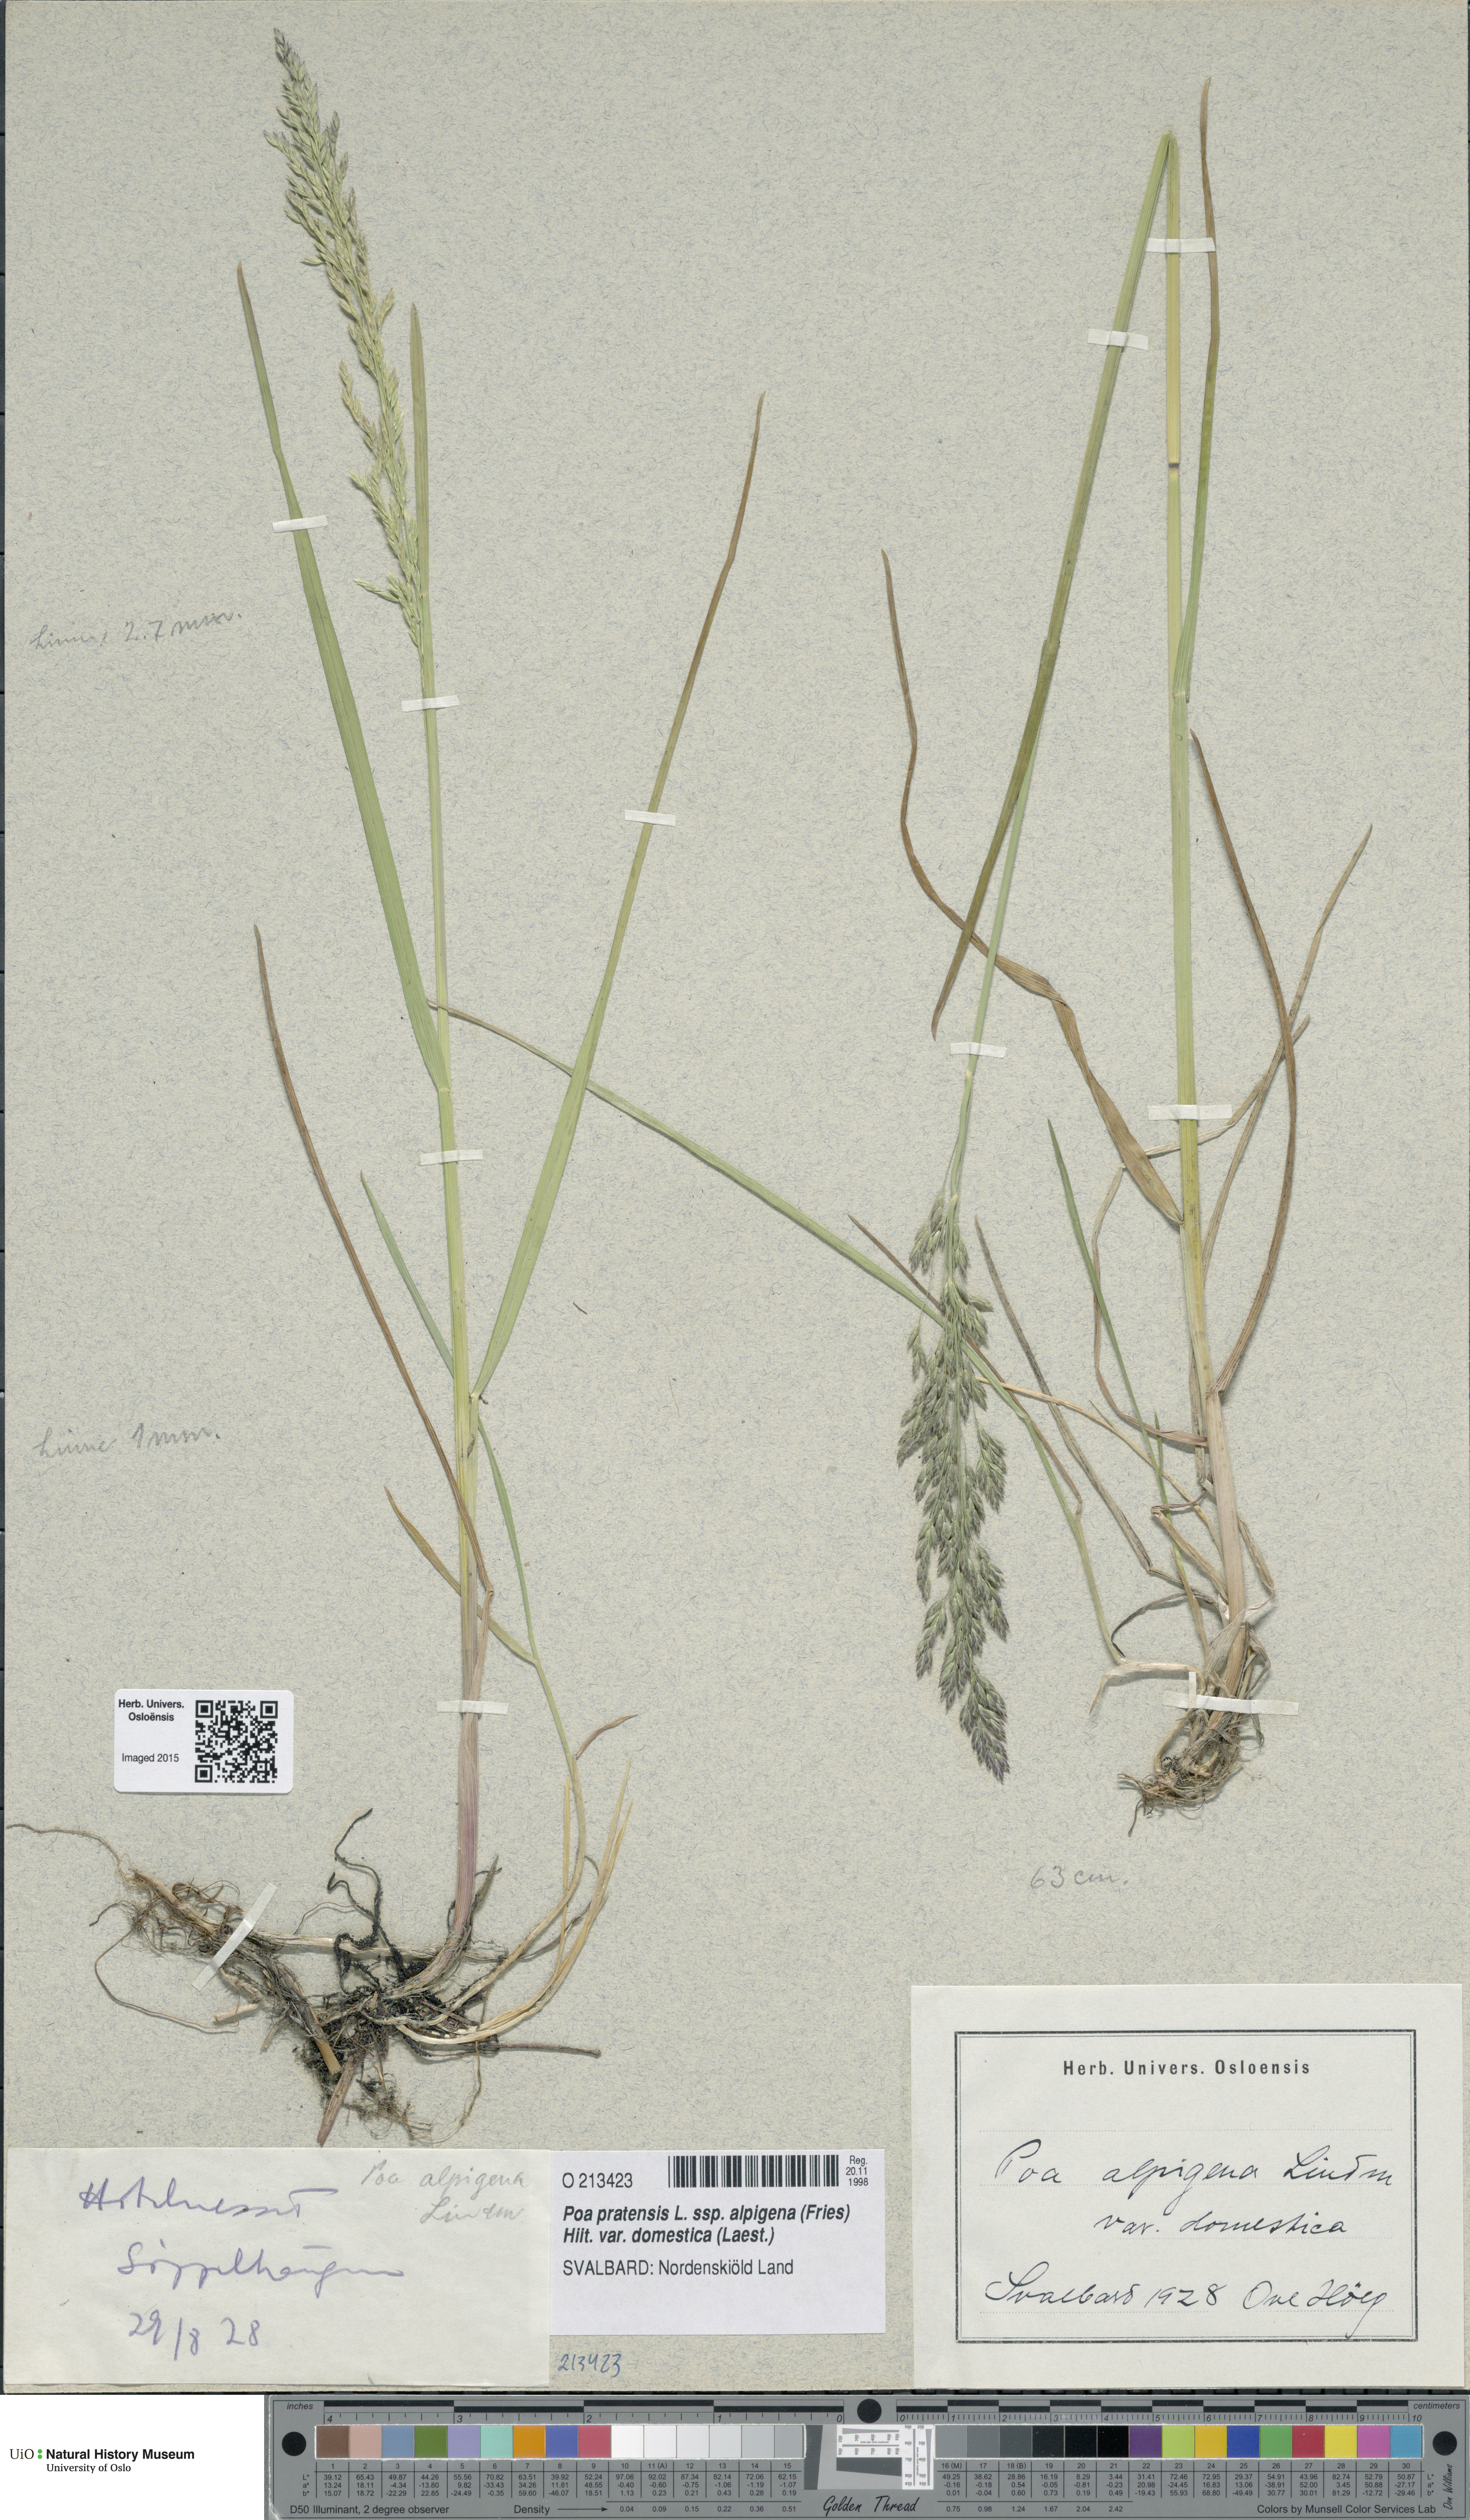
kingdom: Plantae
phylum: Tracheophyta
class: Liliopsida
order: Poales
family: Poaceae
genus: Poa
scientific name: Poa pratensis
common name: Kentucky bluegrass
